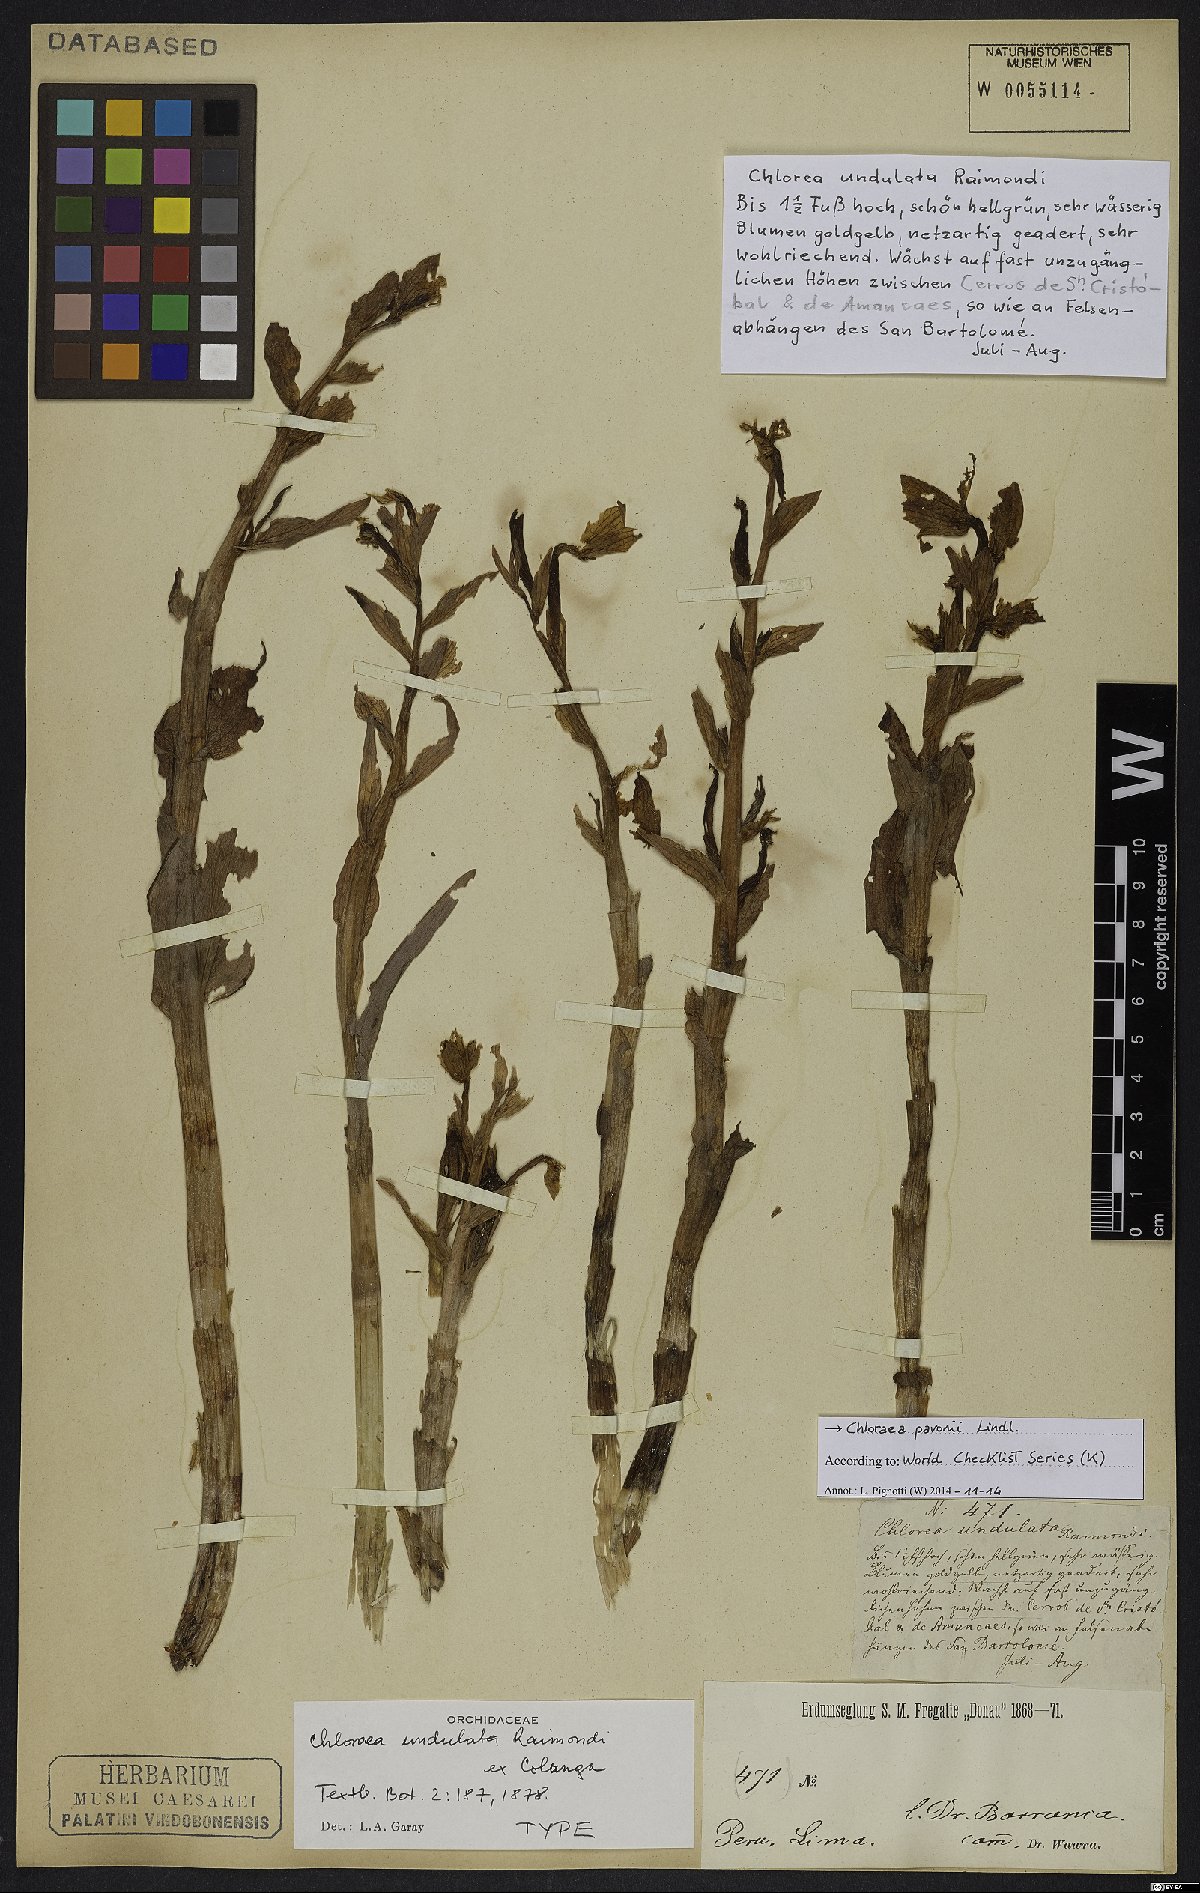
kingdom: Plantae
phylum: Tracheophyta
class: Liliopsida
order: Asparagales
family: Orchidaceae
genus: Chloraea
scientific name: Chloraea pavonii
